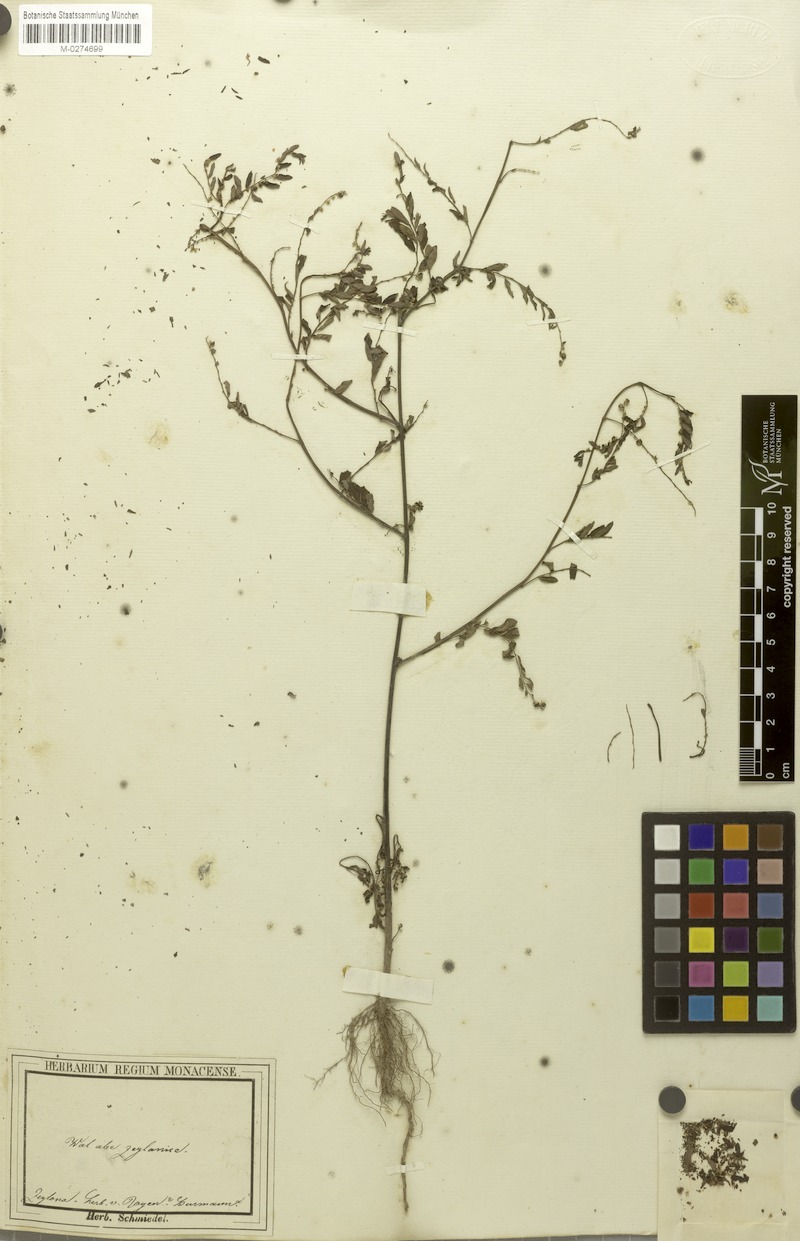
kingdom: Plantae
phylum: Tracheophyta
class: Magnoliopsida
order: Malpighiales
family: Phyllanthaceae
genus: Phyllanthus
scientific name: Phyllanthus niruri
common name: Niruri
